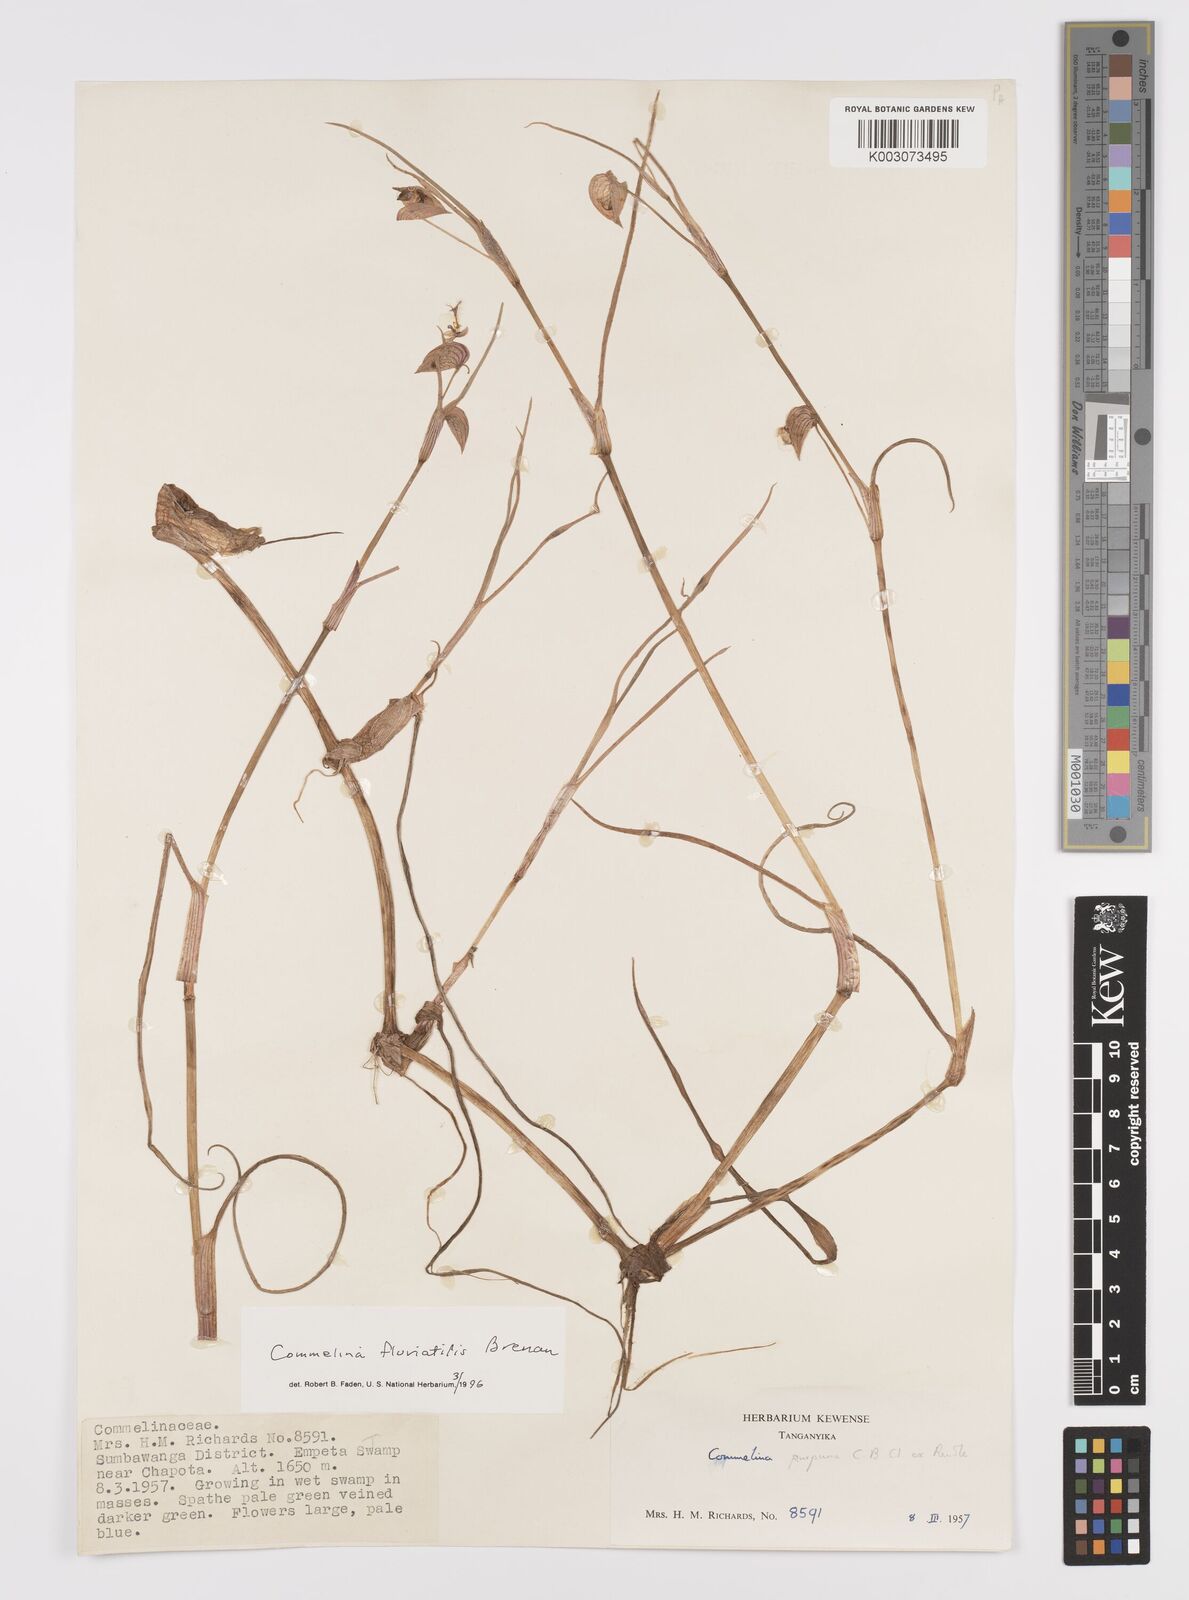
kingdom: Plantae
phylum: Tracheophyta
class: Liliopsida
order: Commelinales
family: Commelinaceae
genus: Commelina
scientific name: Commelina fluviatilis
